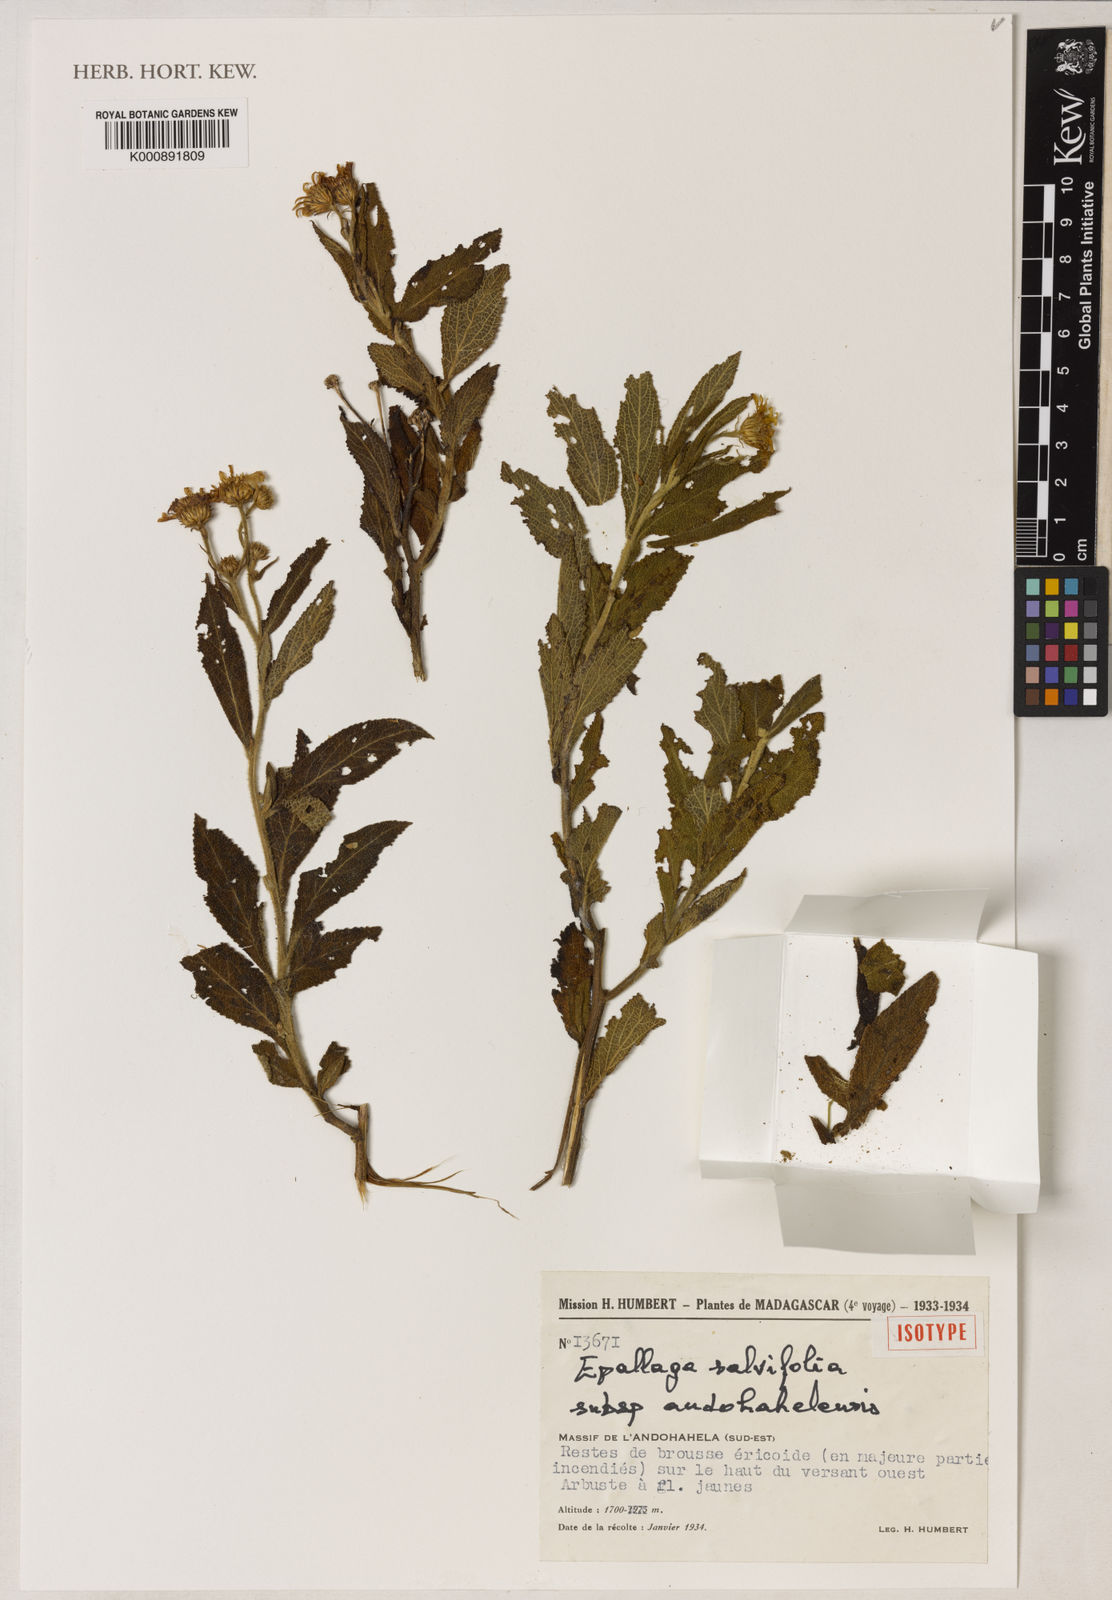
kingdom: Plantae
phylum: Tracheophyta
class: Magnoliopsida
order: Asterales
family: Asteraceae
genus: Anisopappus
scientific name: Anisopappus salviifolius
